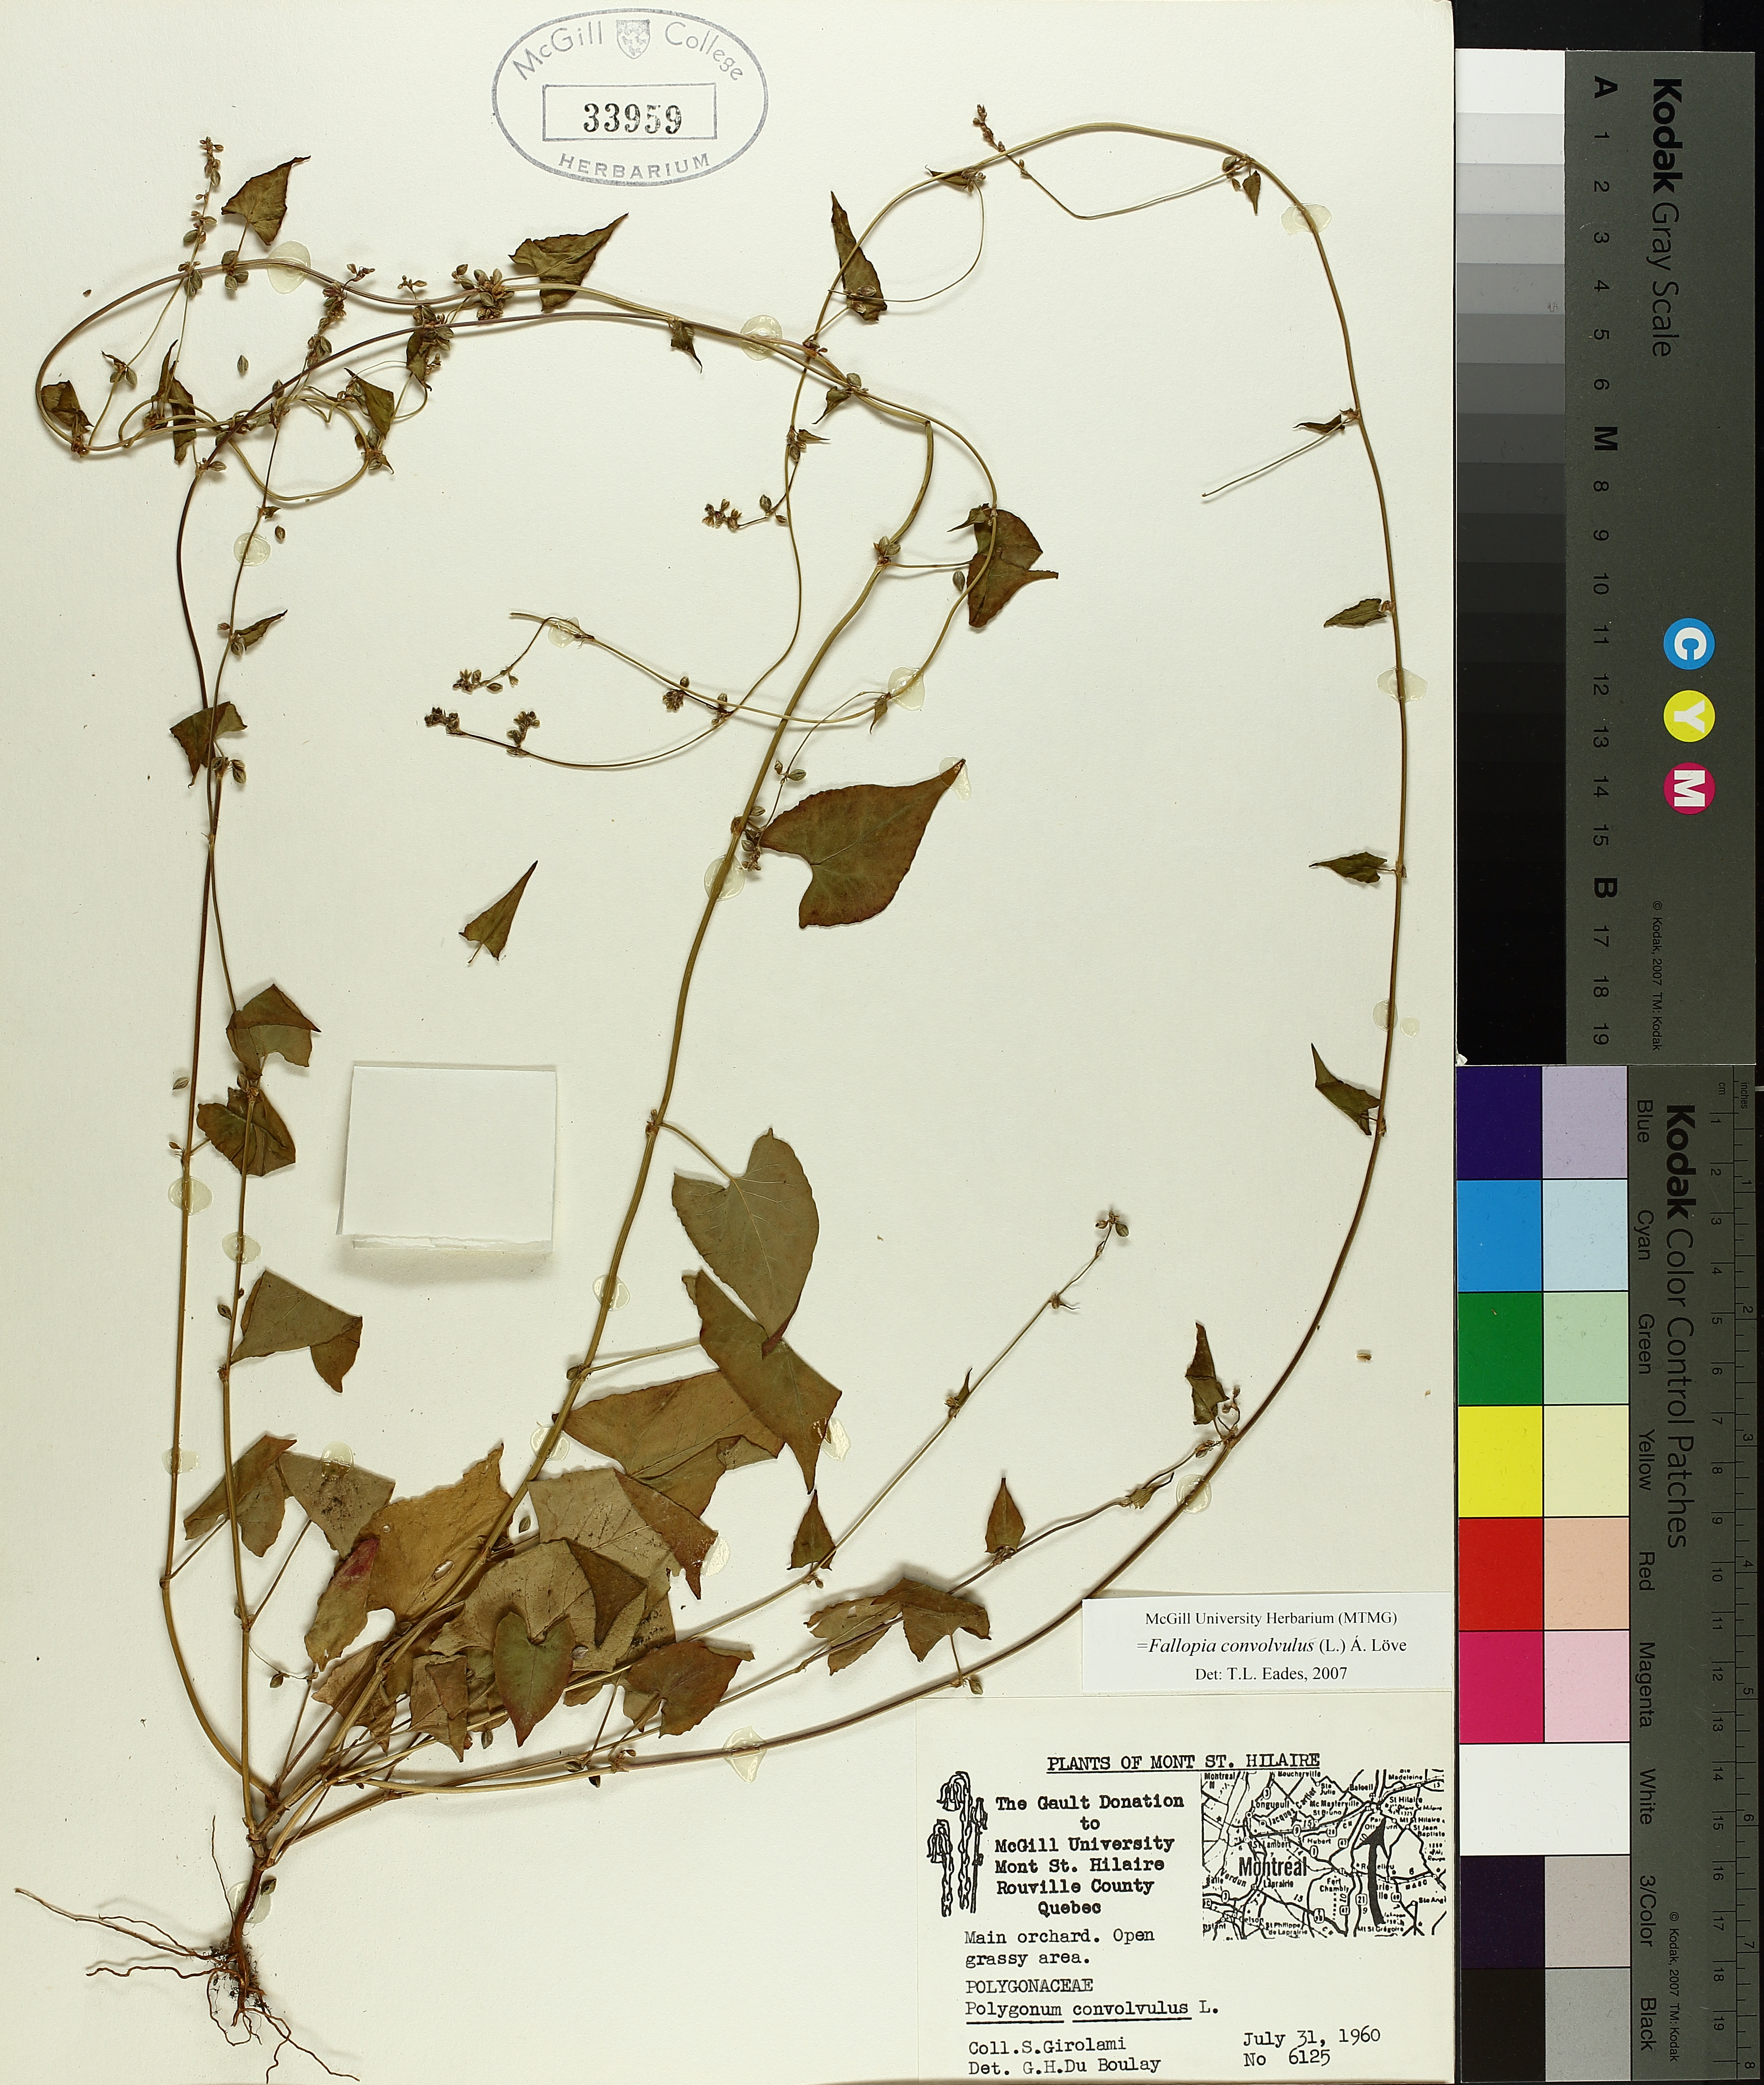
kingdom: Plantae
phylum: Tracheophyta
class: Magnoliopsida
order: Caryophyllales
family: Polygonaceae
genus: Fallopia
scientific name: Fallopia convolvulus
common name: Black bindweed
